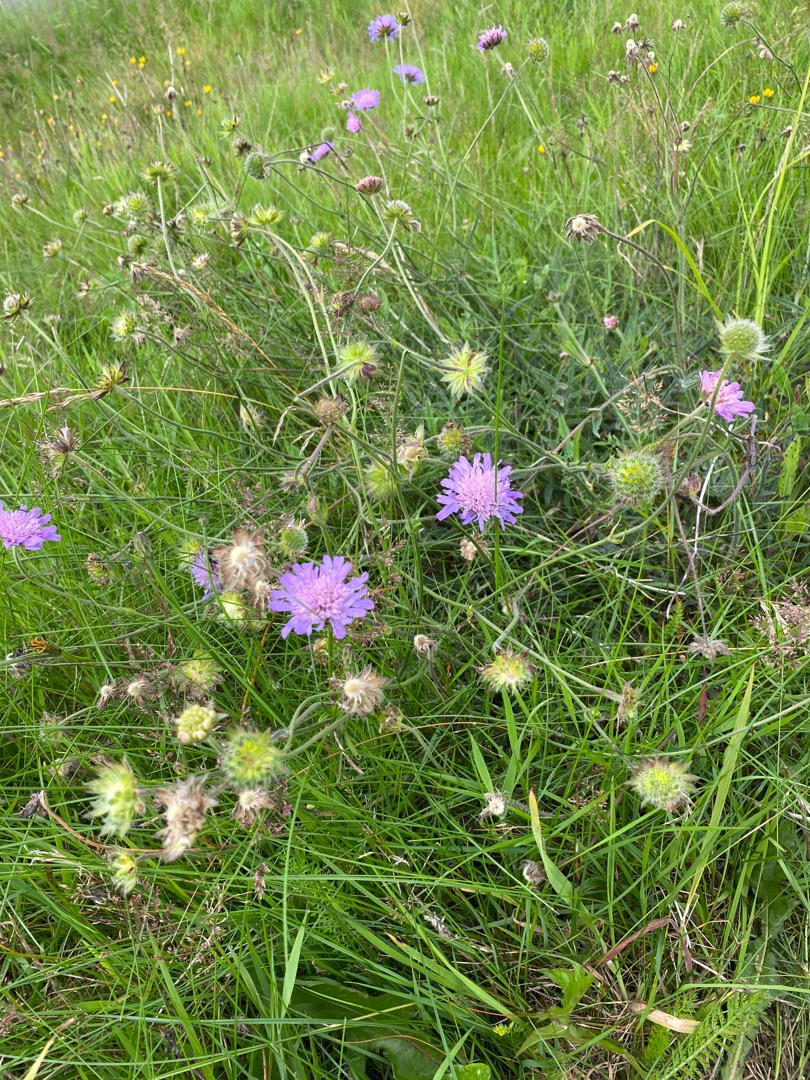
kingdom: Plantae
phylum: Tracheophyta
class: Magnoliopsida
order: Dipsacales
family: Caprifoliaceae
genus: Knautia
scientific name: Knautia arvensis
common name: Blåhat
